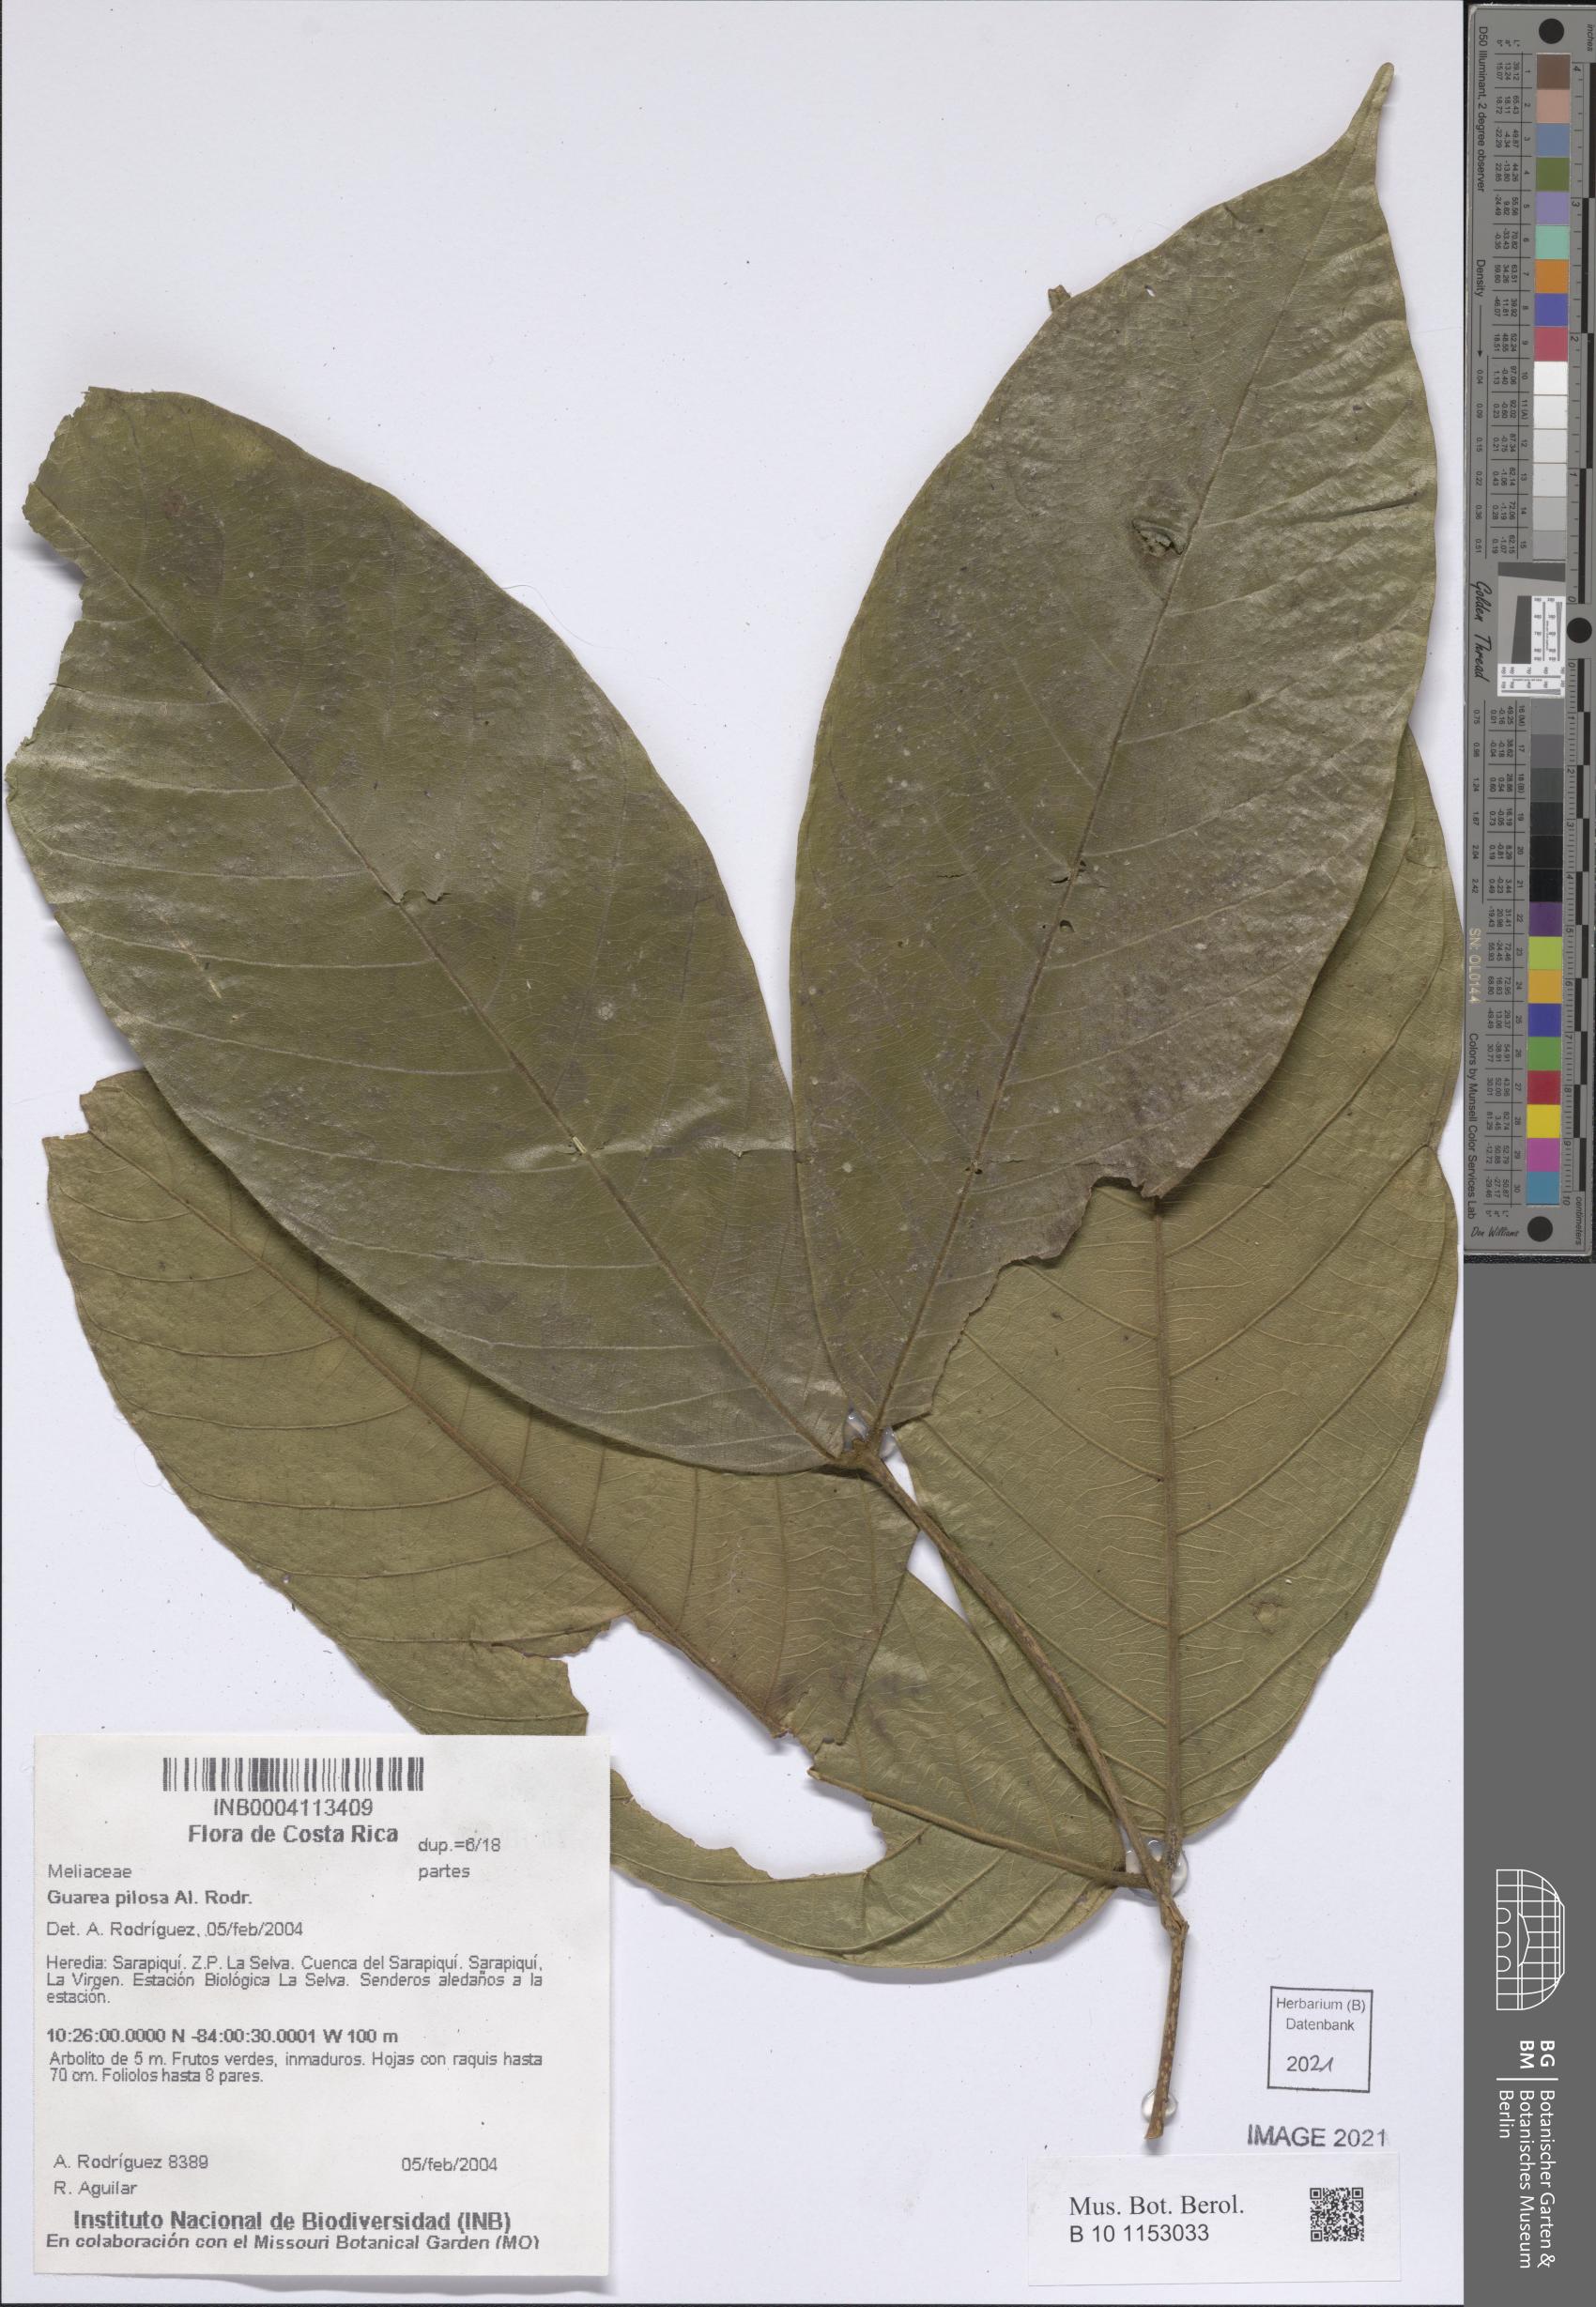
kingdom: Plantae
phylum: Tracheophyta
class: Magnoliopsida
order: Sapindales
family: Meliaceae
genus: Guarea
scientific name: Guarea pilosa
